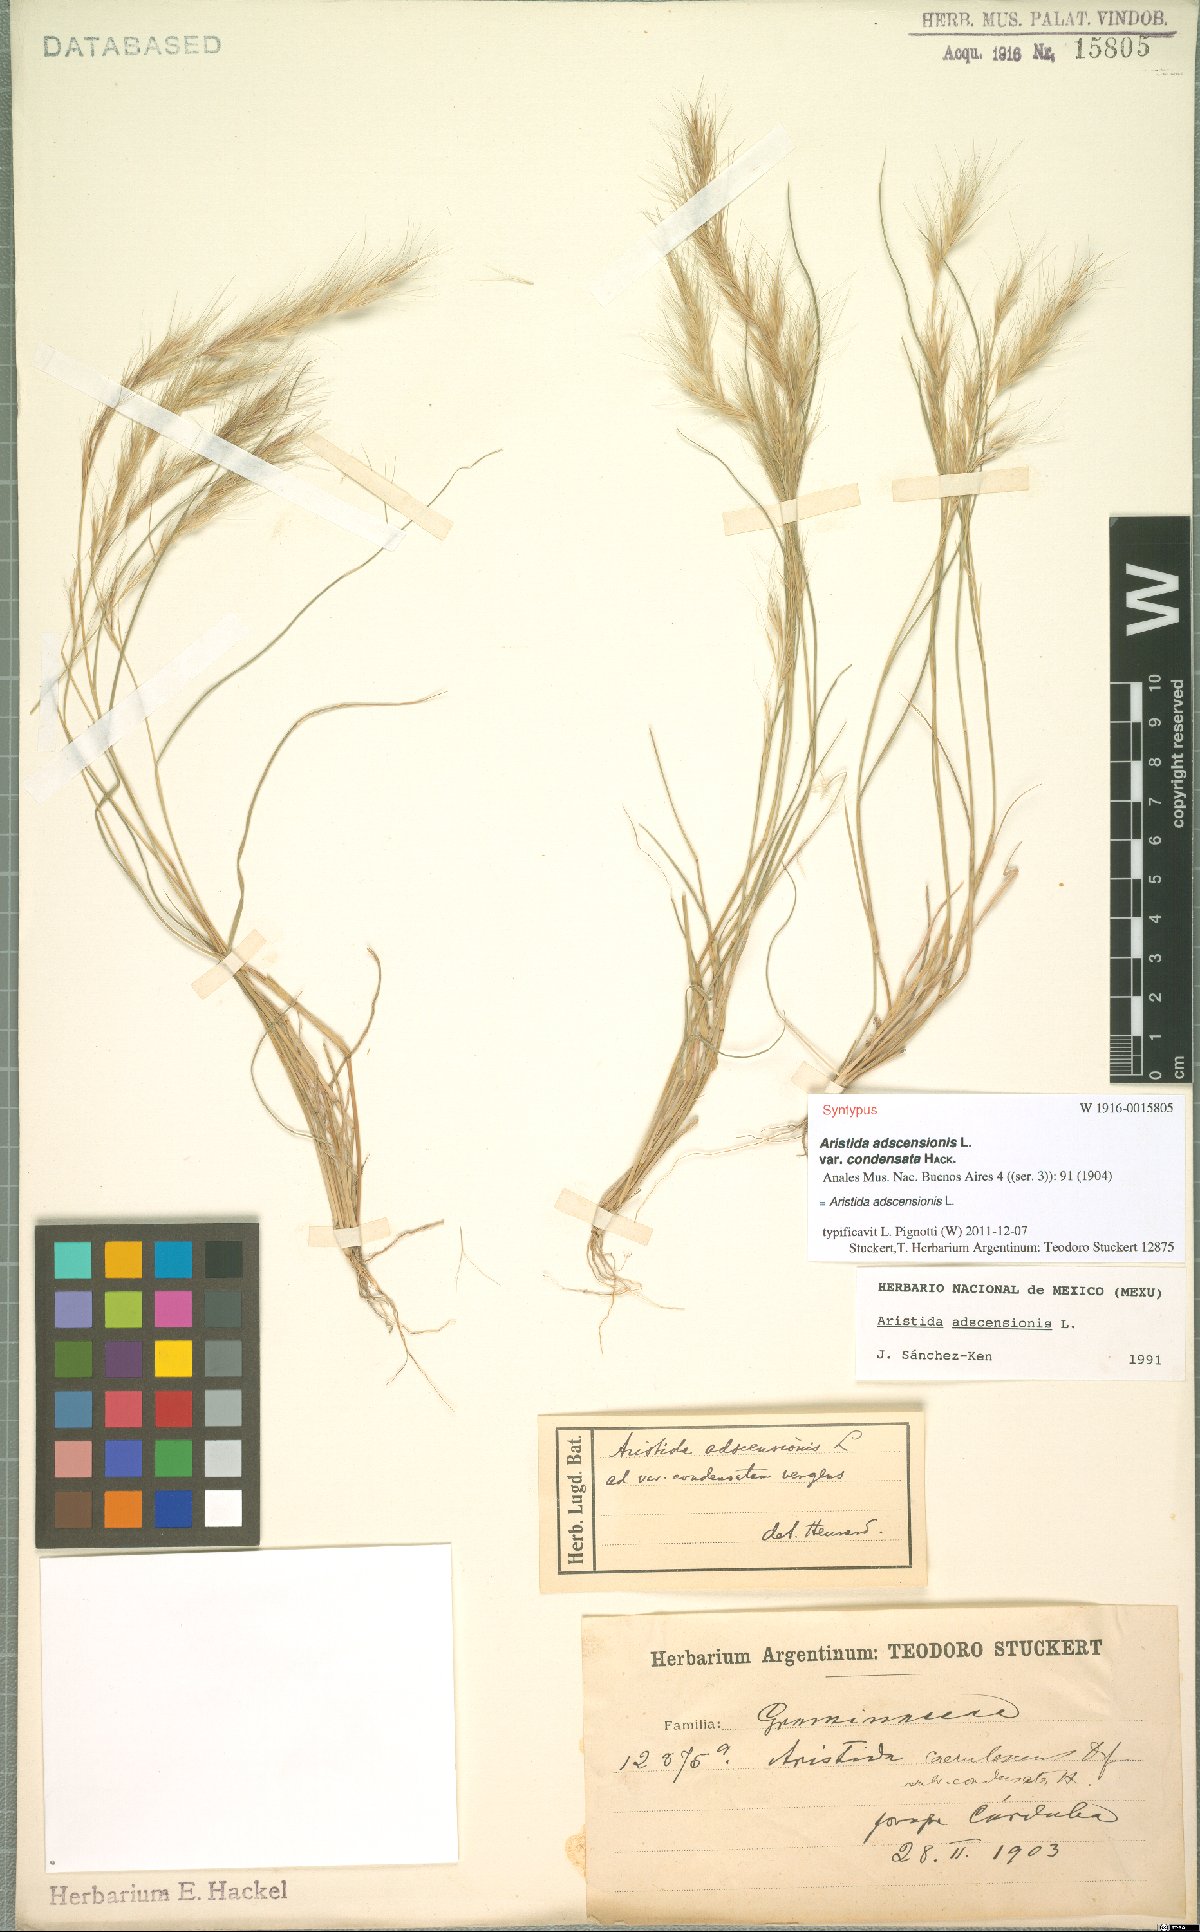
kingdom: Plantae
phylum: Tracheophyta
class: Liliopsida
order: Poales
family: Poaceae
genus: Aristida
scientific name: Aristida adscensionis
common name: Sixweeks threeawn
